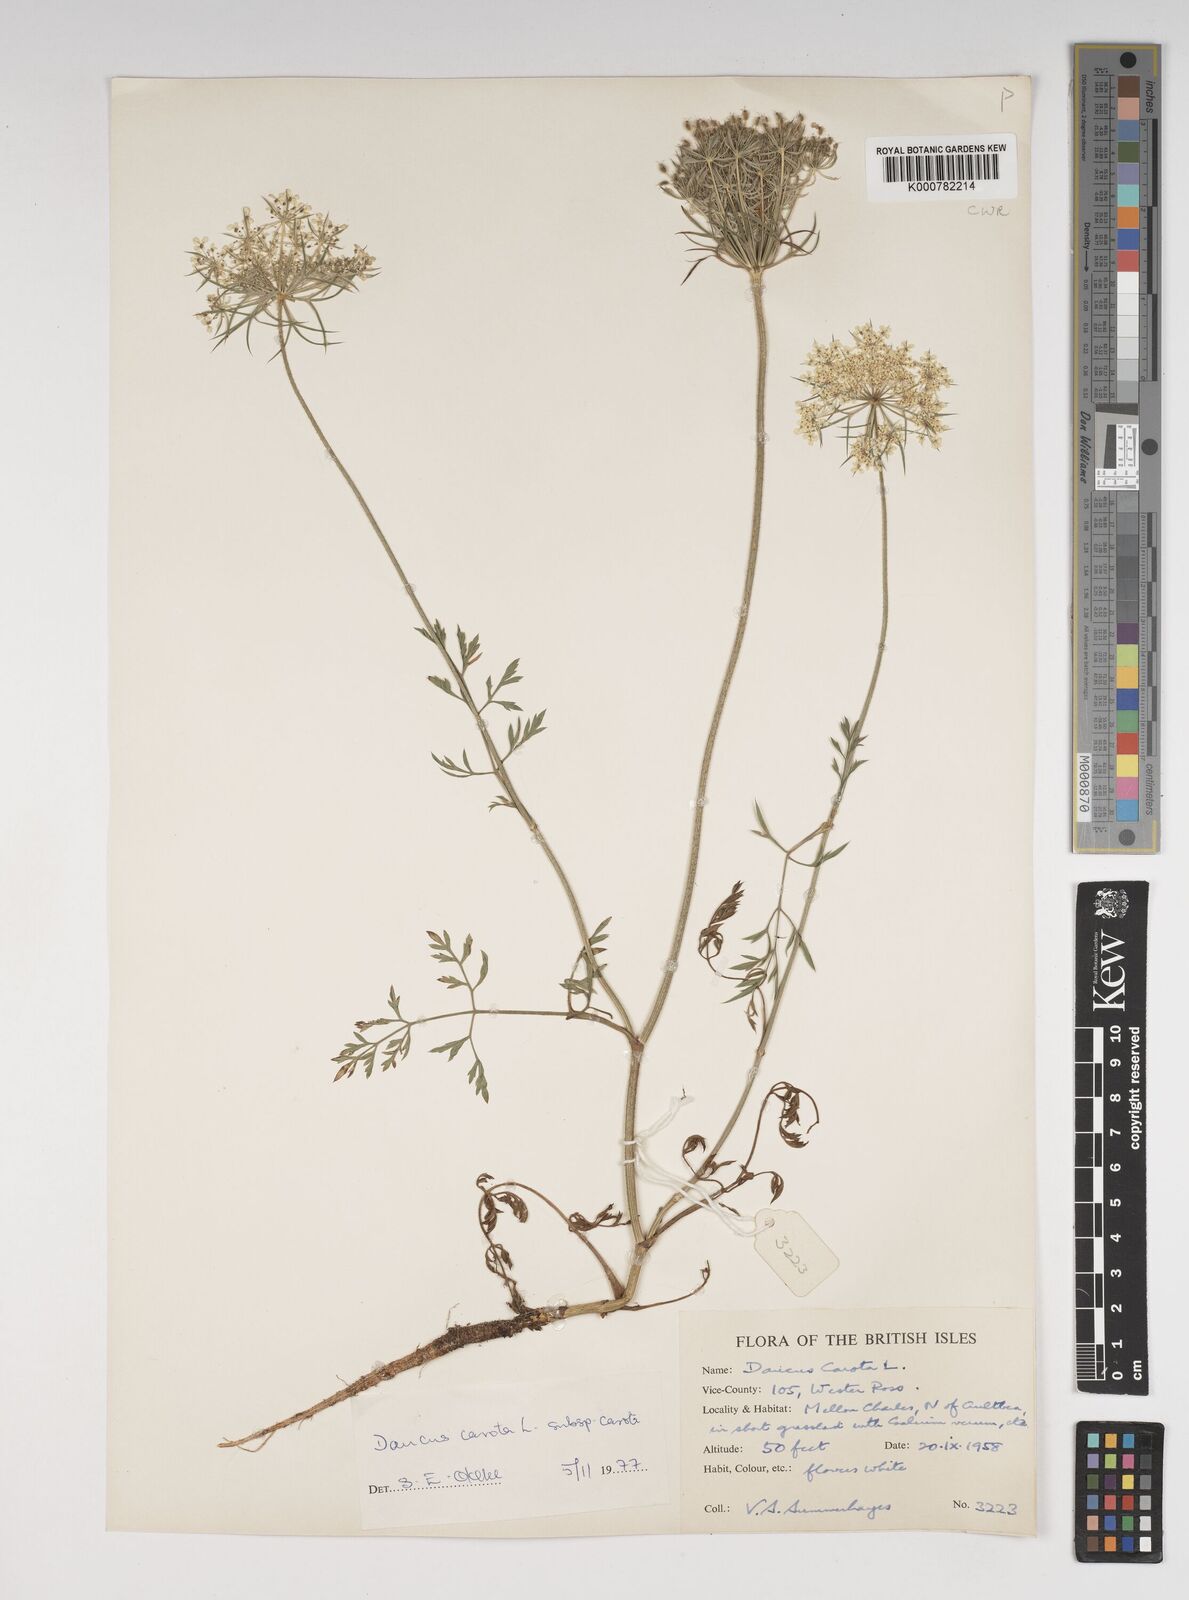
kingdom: Plantae
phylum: Tracheophyta
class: Magnoliopsida
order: Apiales
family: Apiaceae
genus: Daucus
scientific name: Daucus carota
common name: Wild carrot
